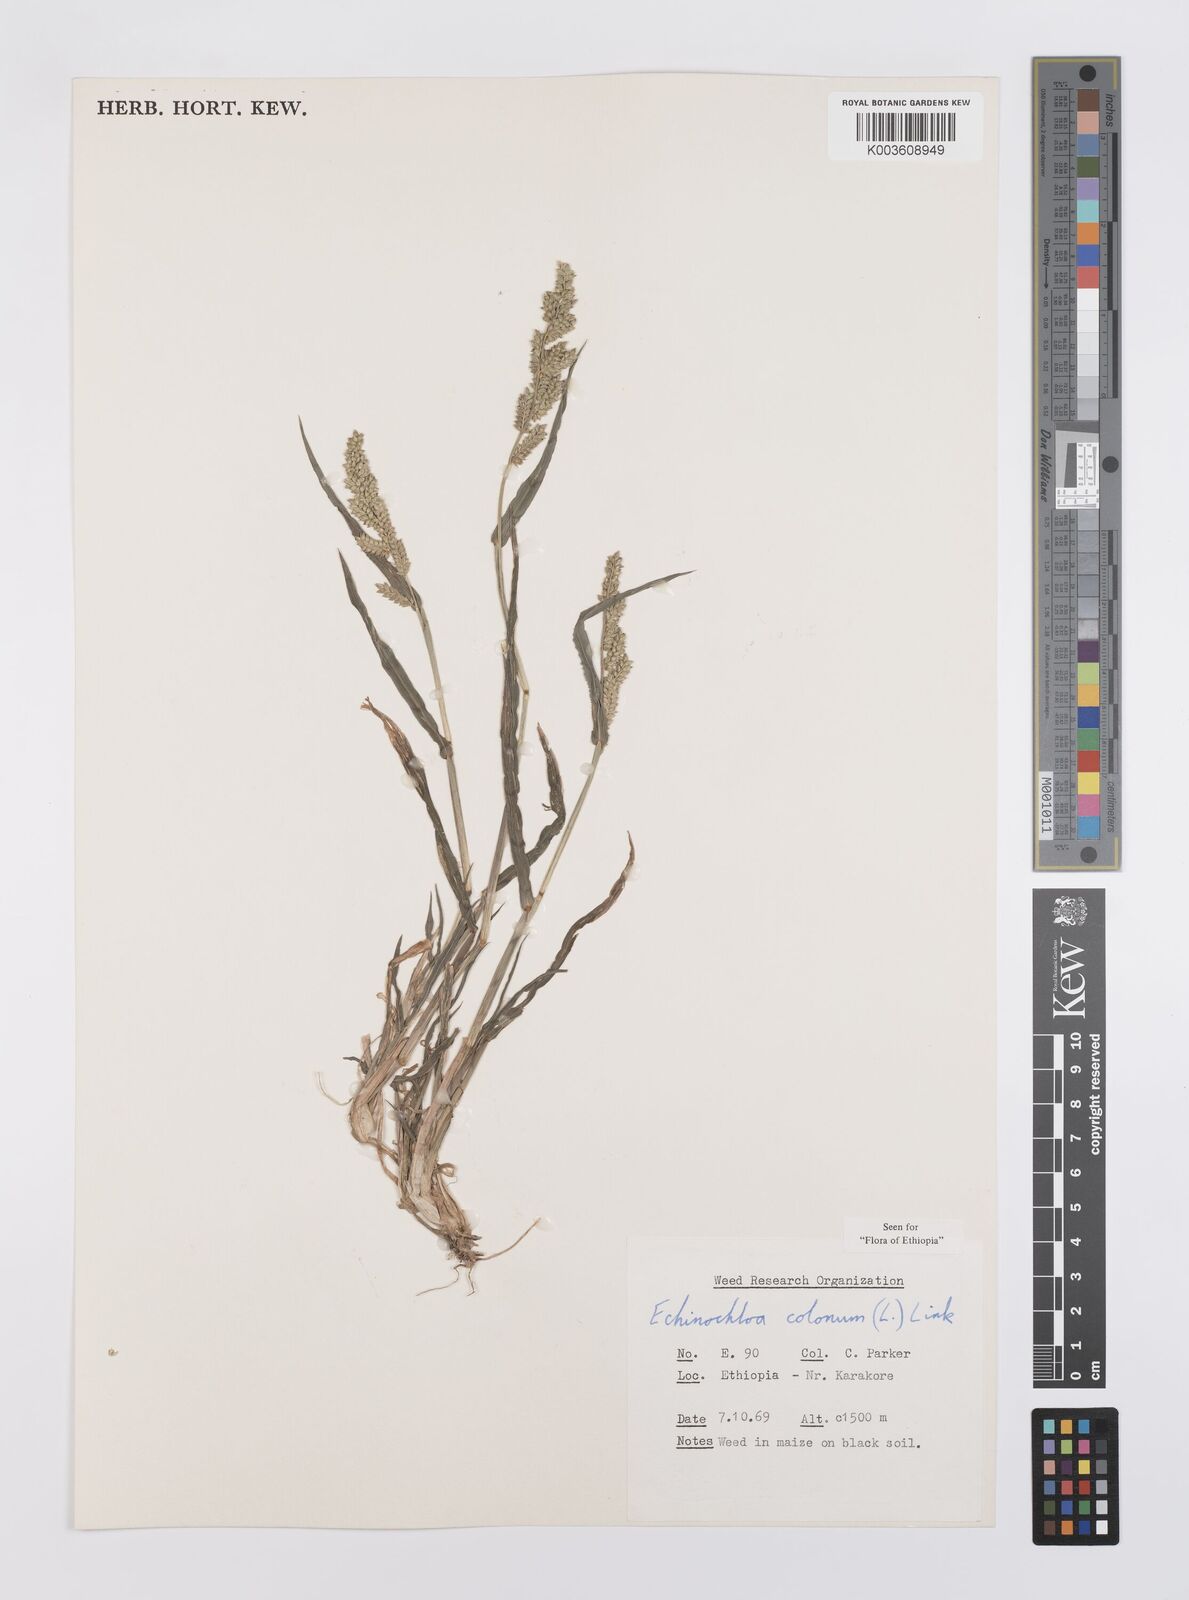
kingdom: Plantae
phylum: Tracheophyta
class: Liliopsida
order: Poales
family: Poaceae
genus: Echinochloa
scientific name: Echinochloa colonum
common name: Jungle rice
